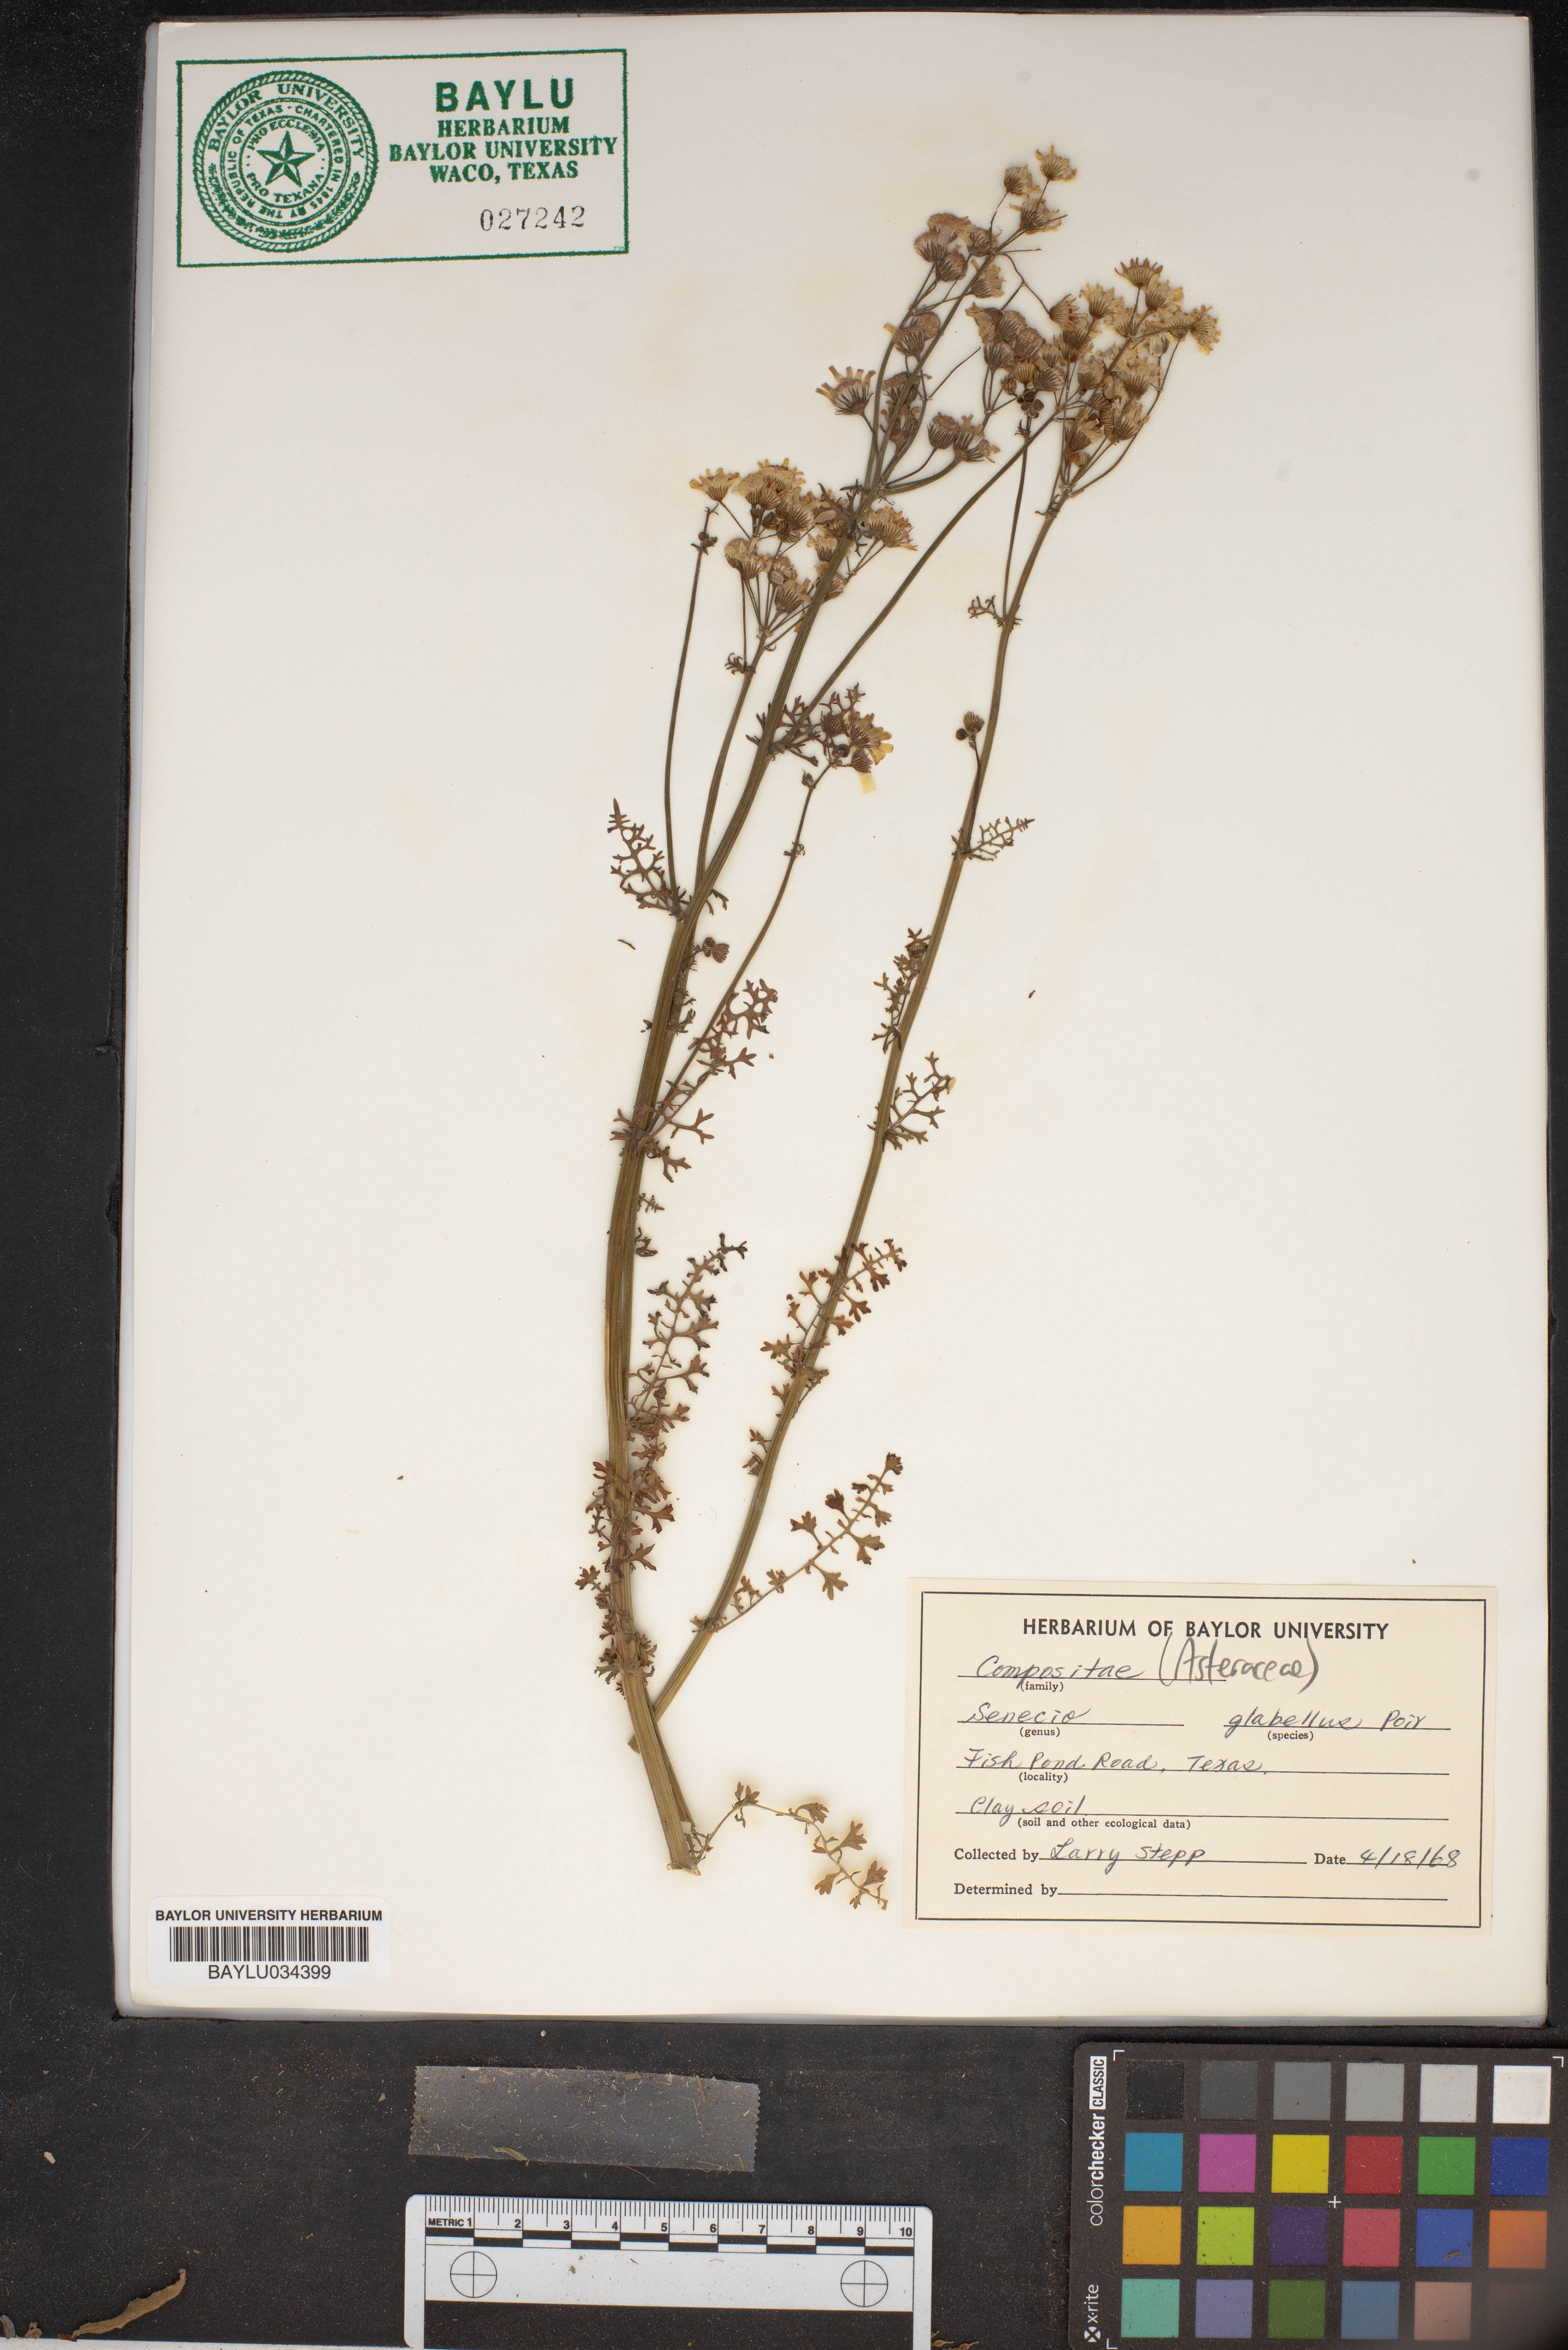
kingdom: Plantae
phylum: Tracheophyta
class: Magnoliopsida
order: Asterales
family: Asteraceae
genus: Tephroseris
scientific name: Tephroseris praticola
